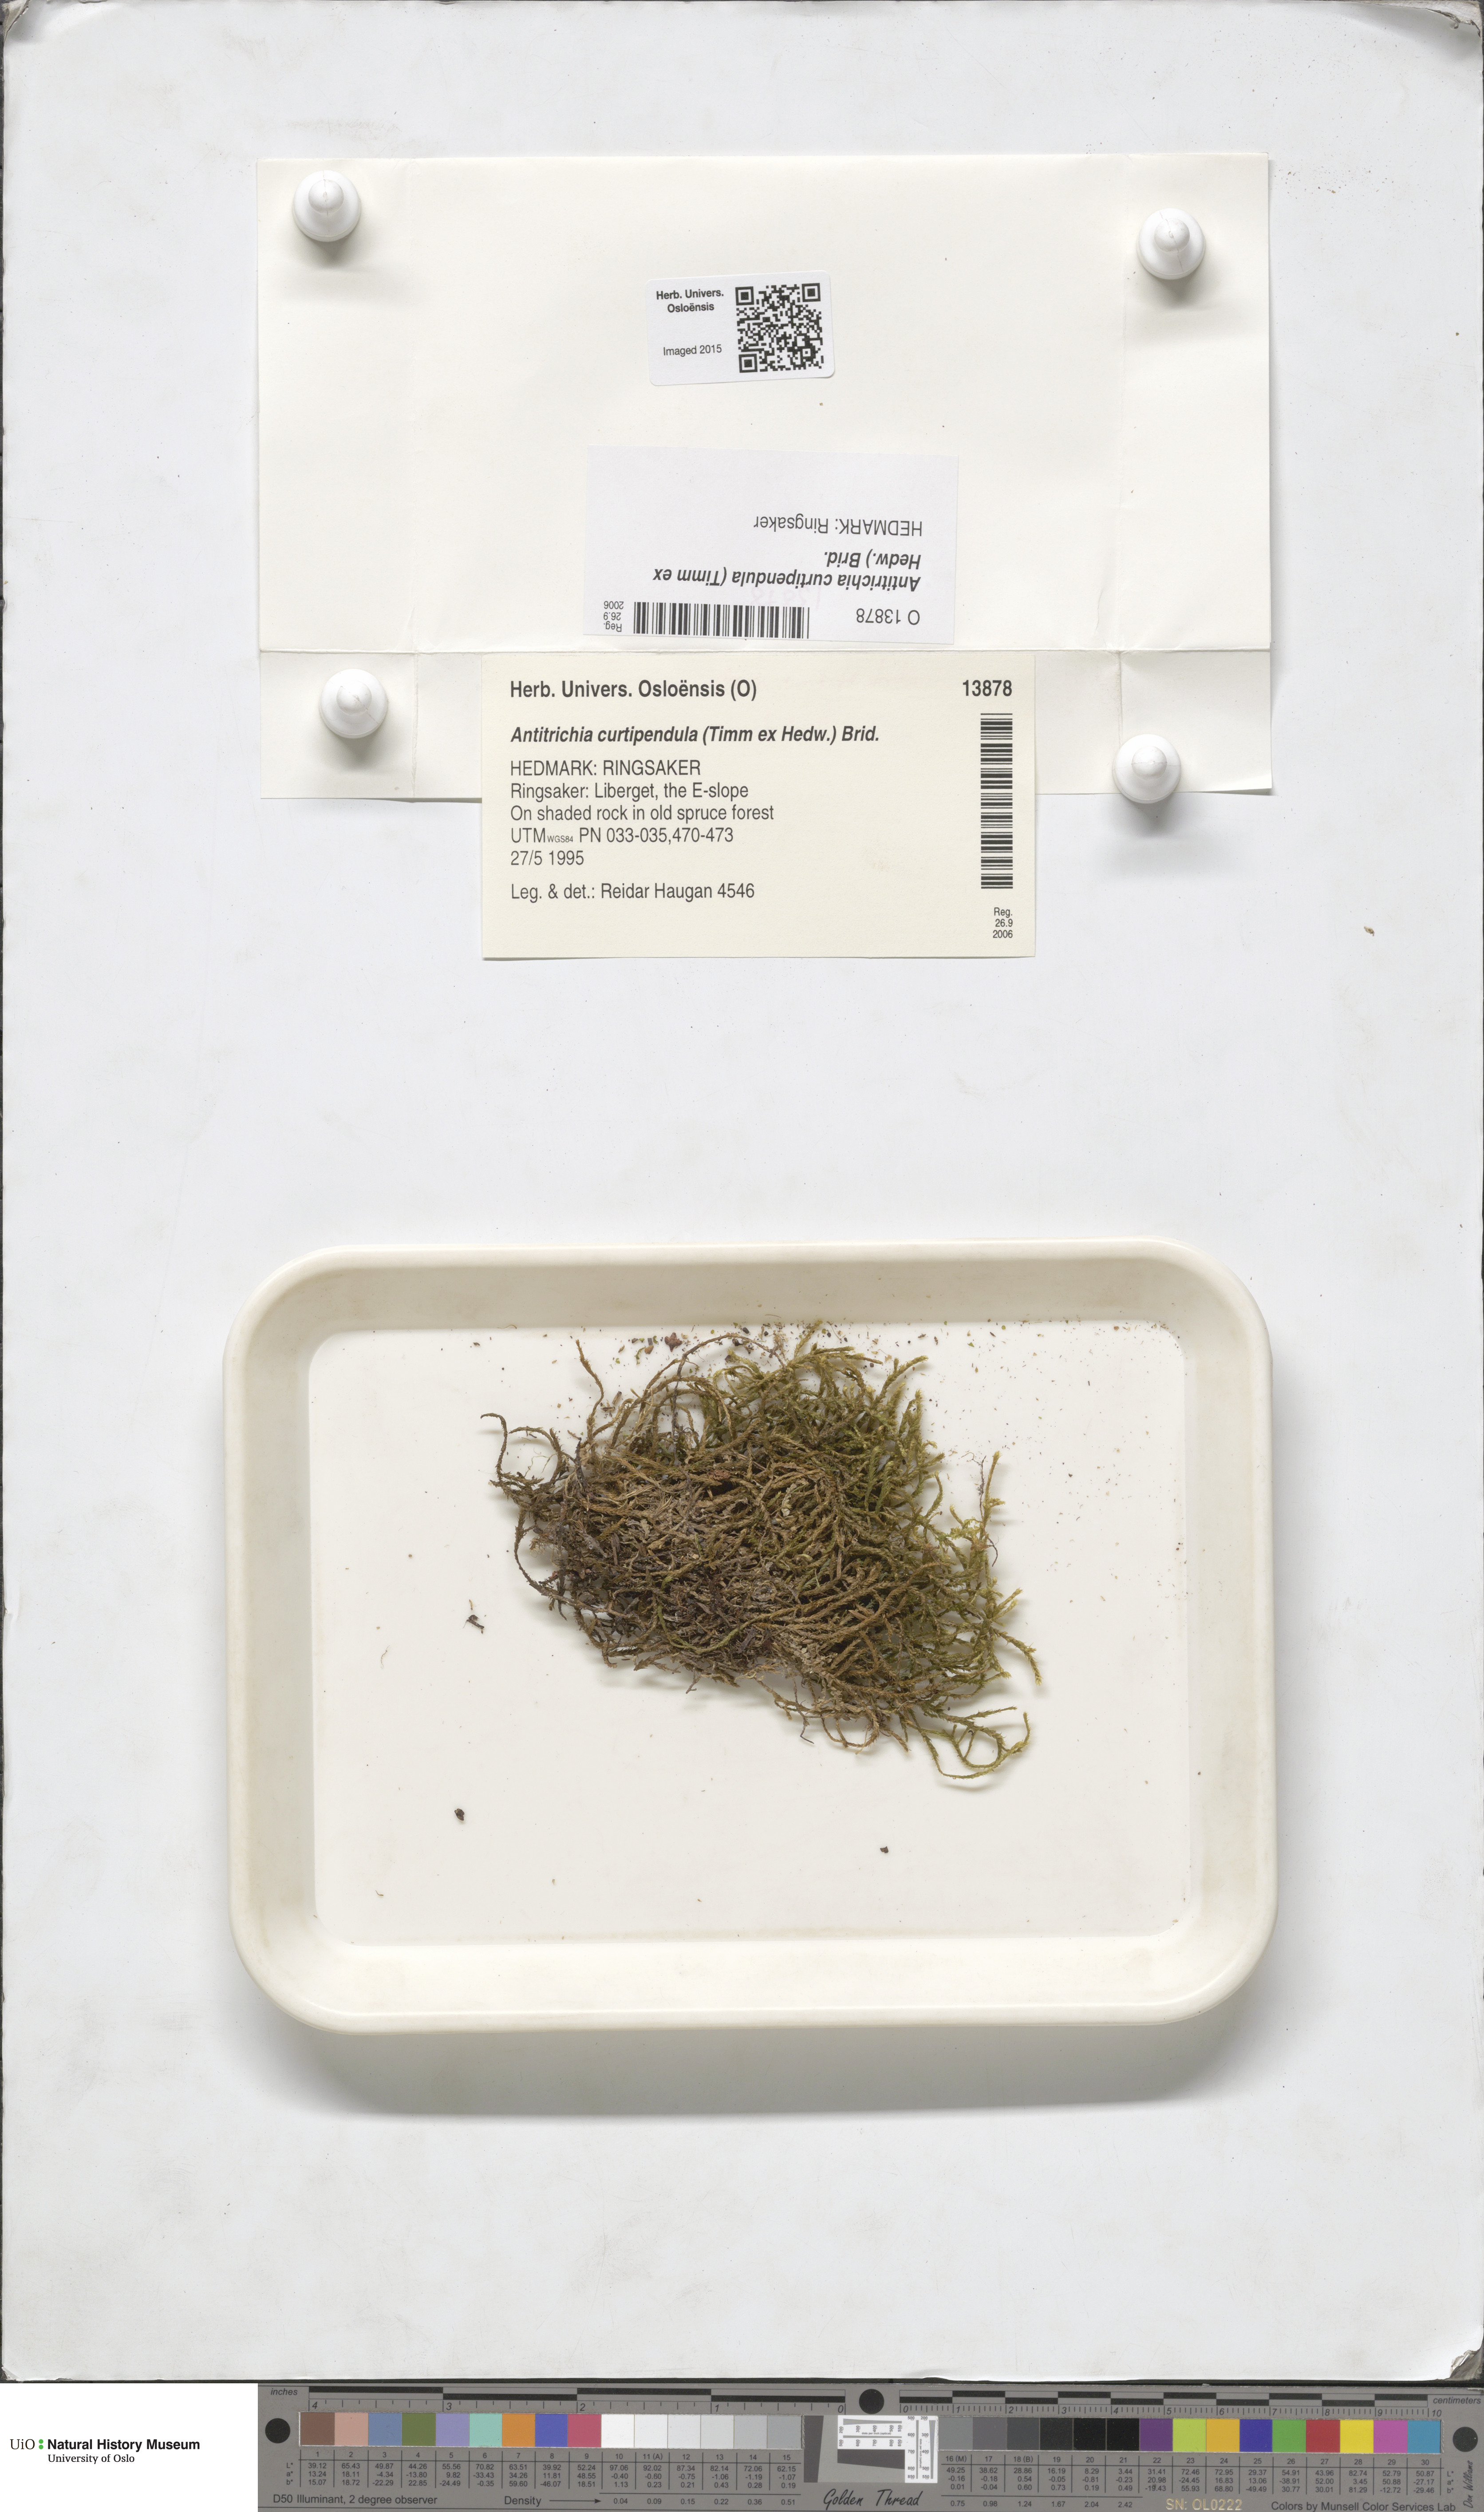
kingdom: Plantae
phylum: Bryophyta
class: Bryopsida
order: Hypnales
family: Antitrichiaceae
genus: Antitrichia
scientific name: Antitrichia curtipendula
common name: Pendulous wing-moss
